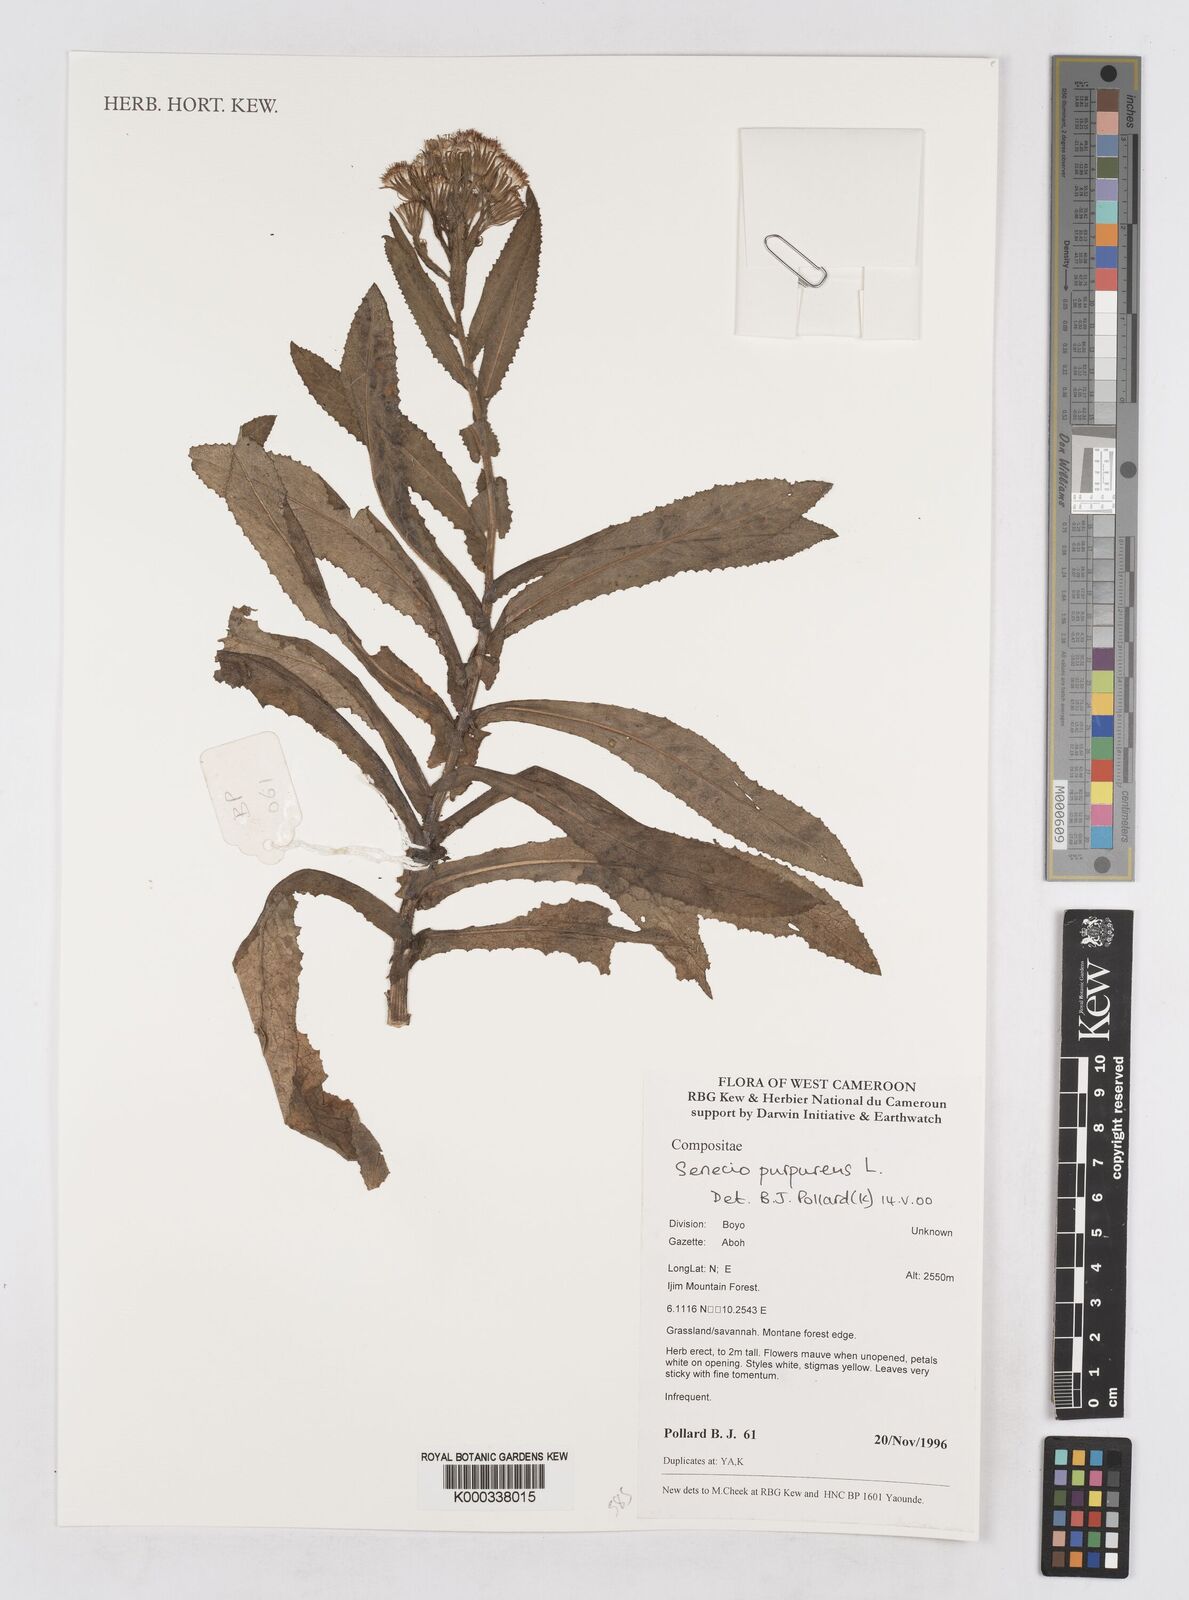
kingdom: Plantae
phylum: Tracheophyta
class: Magnoliopsida
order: Asterales
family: Asteraceae
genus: Senecio
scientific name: Senecio purpureus
